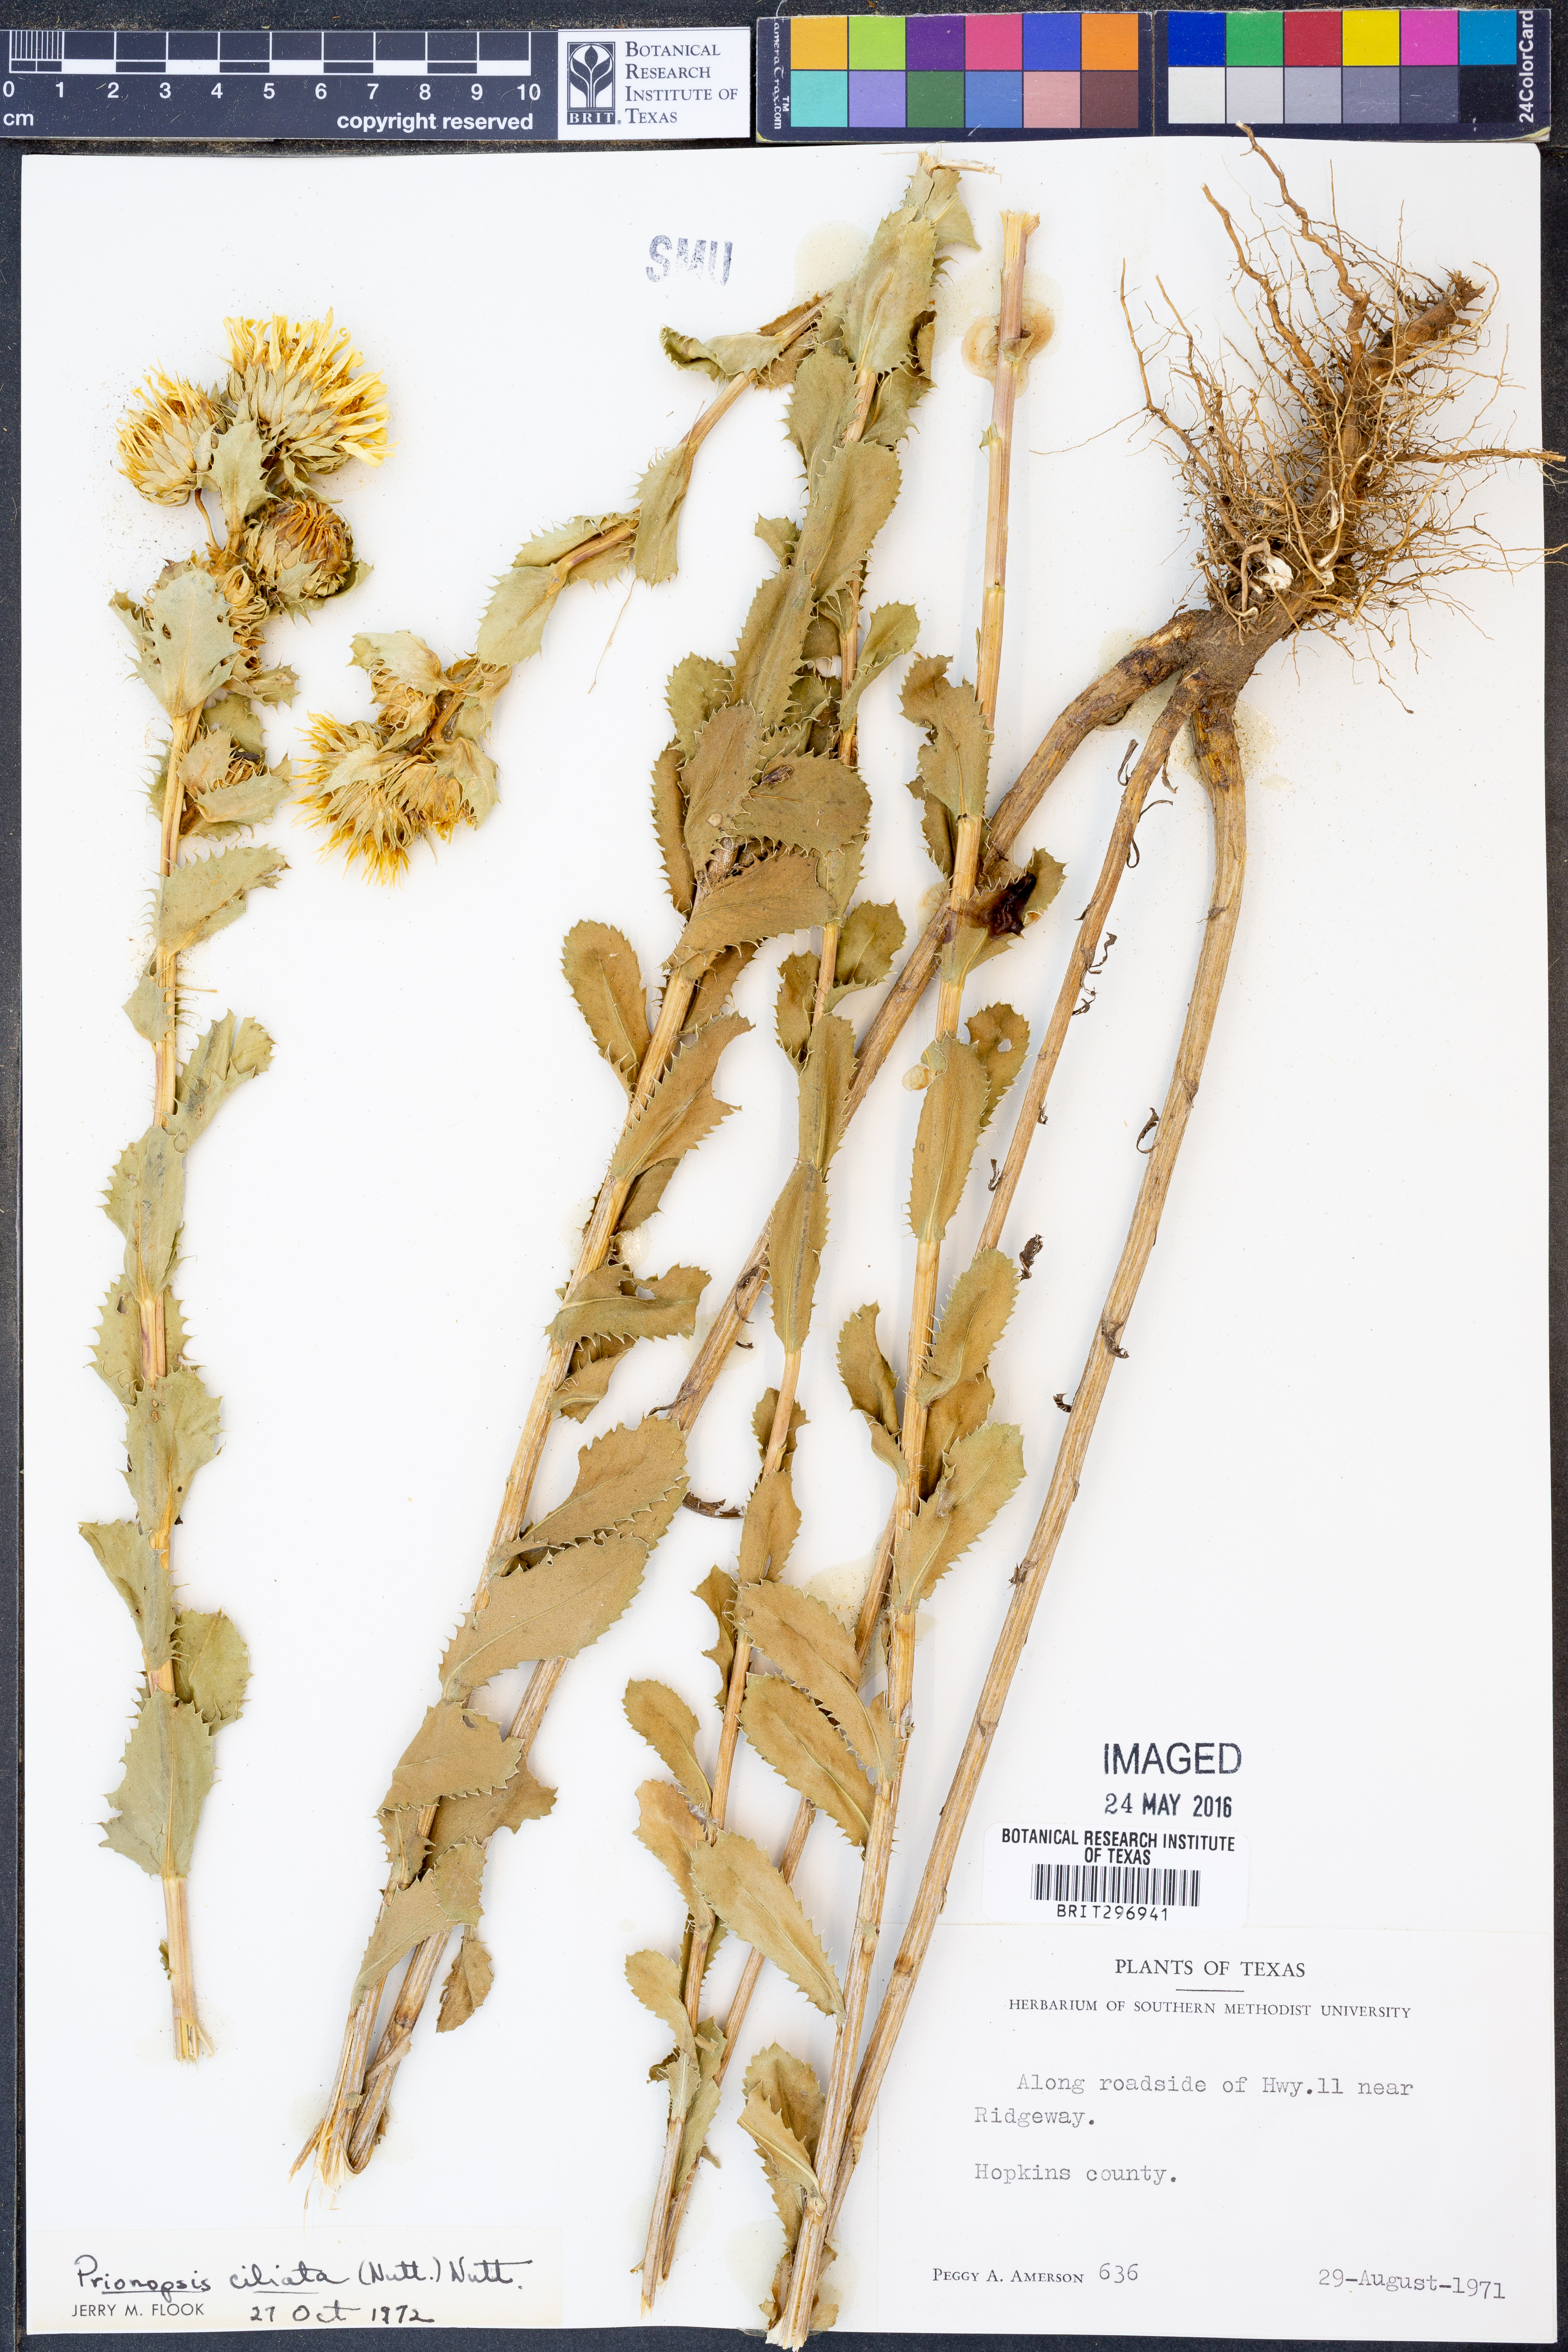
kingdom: Plantae
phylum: Tracheophyta
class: Magnoliopsida
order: Asterales
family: Asteraceae
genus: Grindelia
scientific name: Grindelia ciliata
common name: Goldenweed
